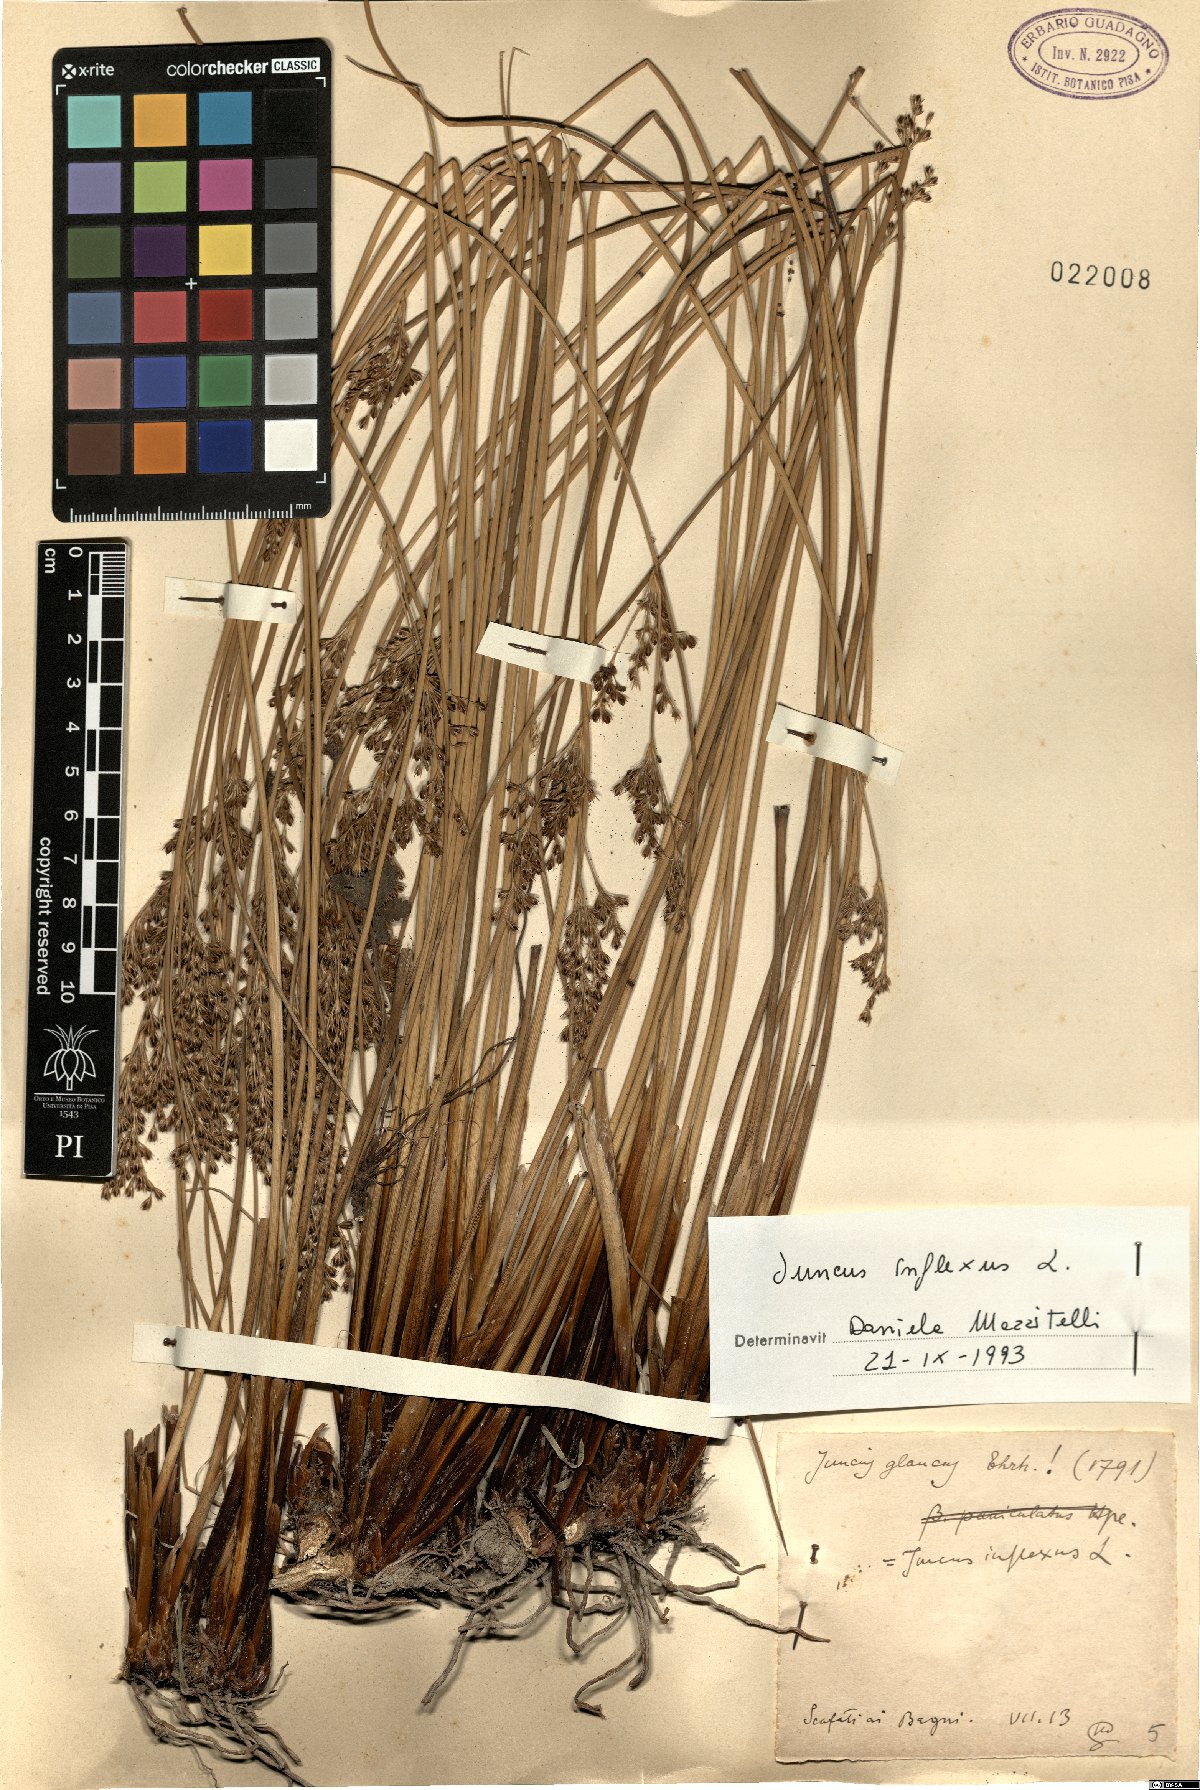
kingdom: Plantae
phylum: Tracheophyta
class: Liliopsida
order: Poales
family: Juncaceae
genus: Juncus
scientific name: Juncus inflexus
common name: Hard rush
